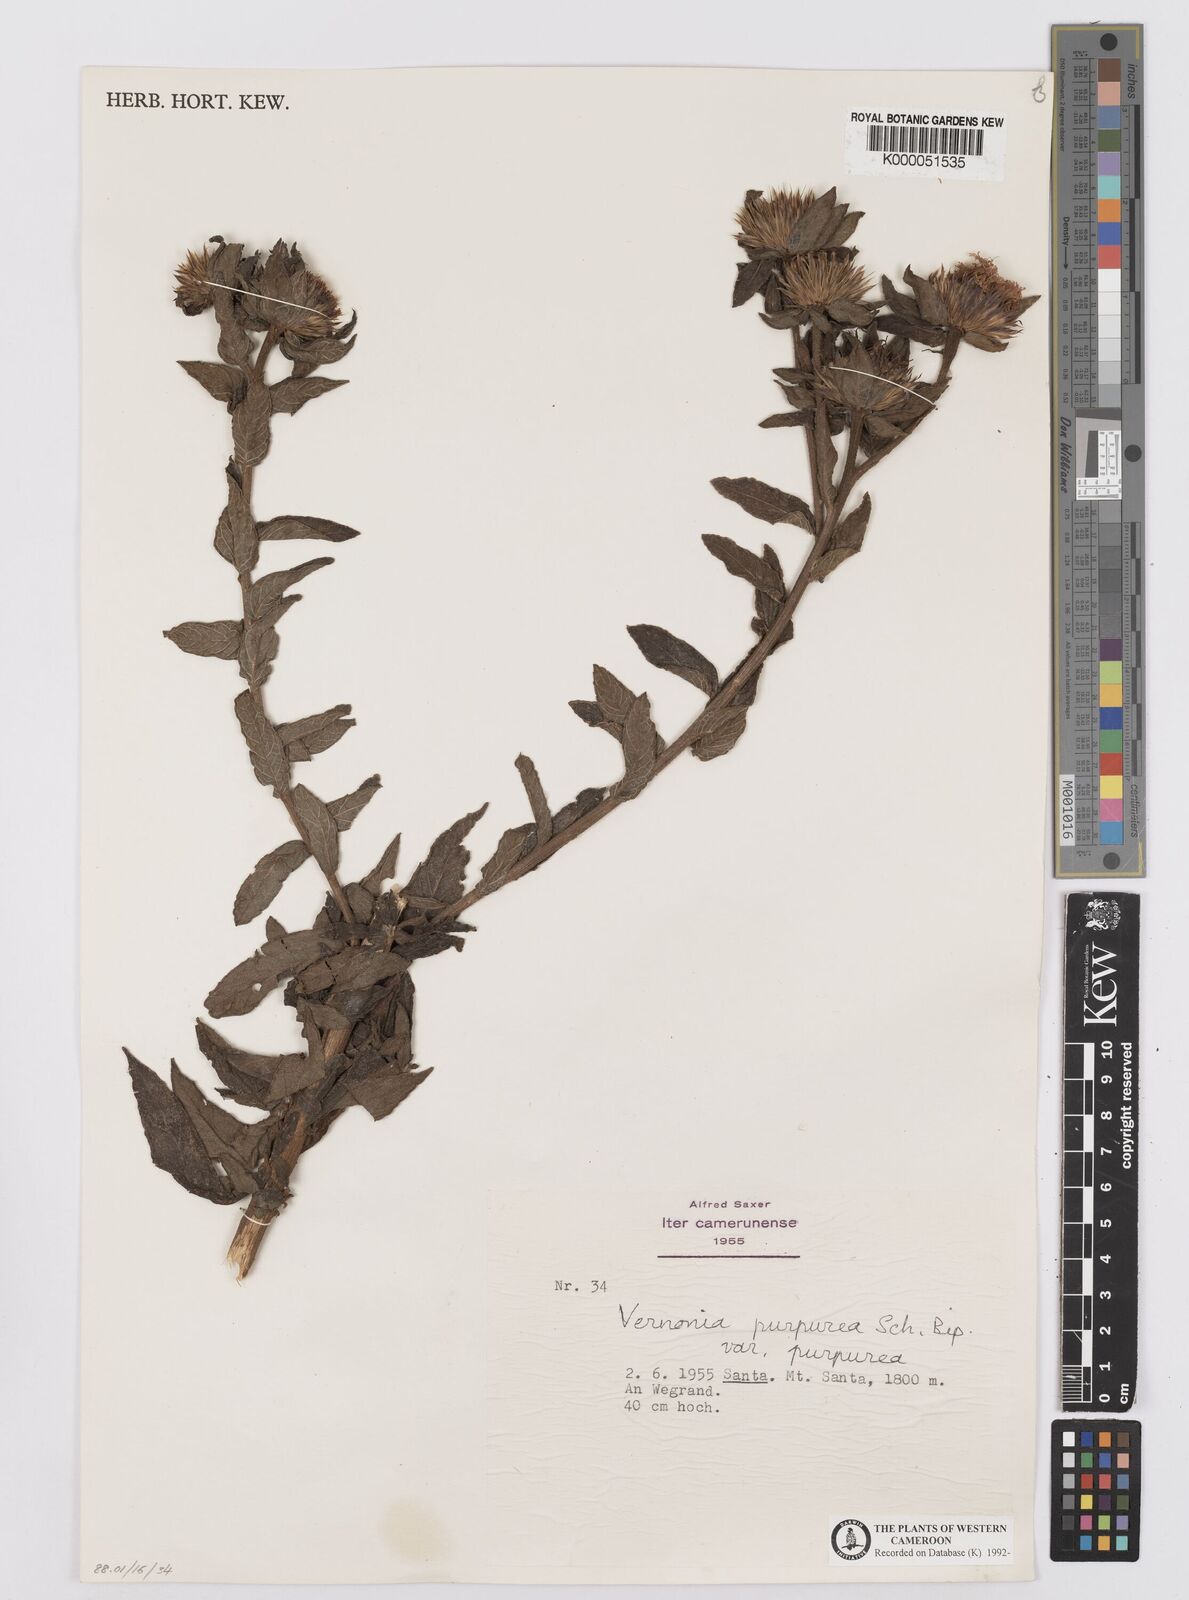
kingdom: Plantae
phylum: Tracheophyta
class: Magnoliopsida
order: Asterales
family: Asteraceae
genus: Vernonia
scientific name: Vernonia
